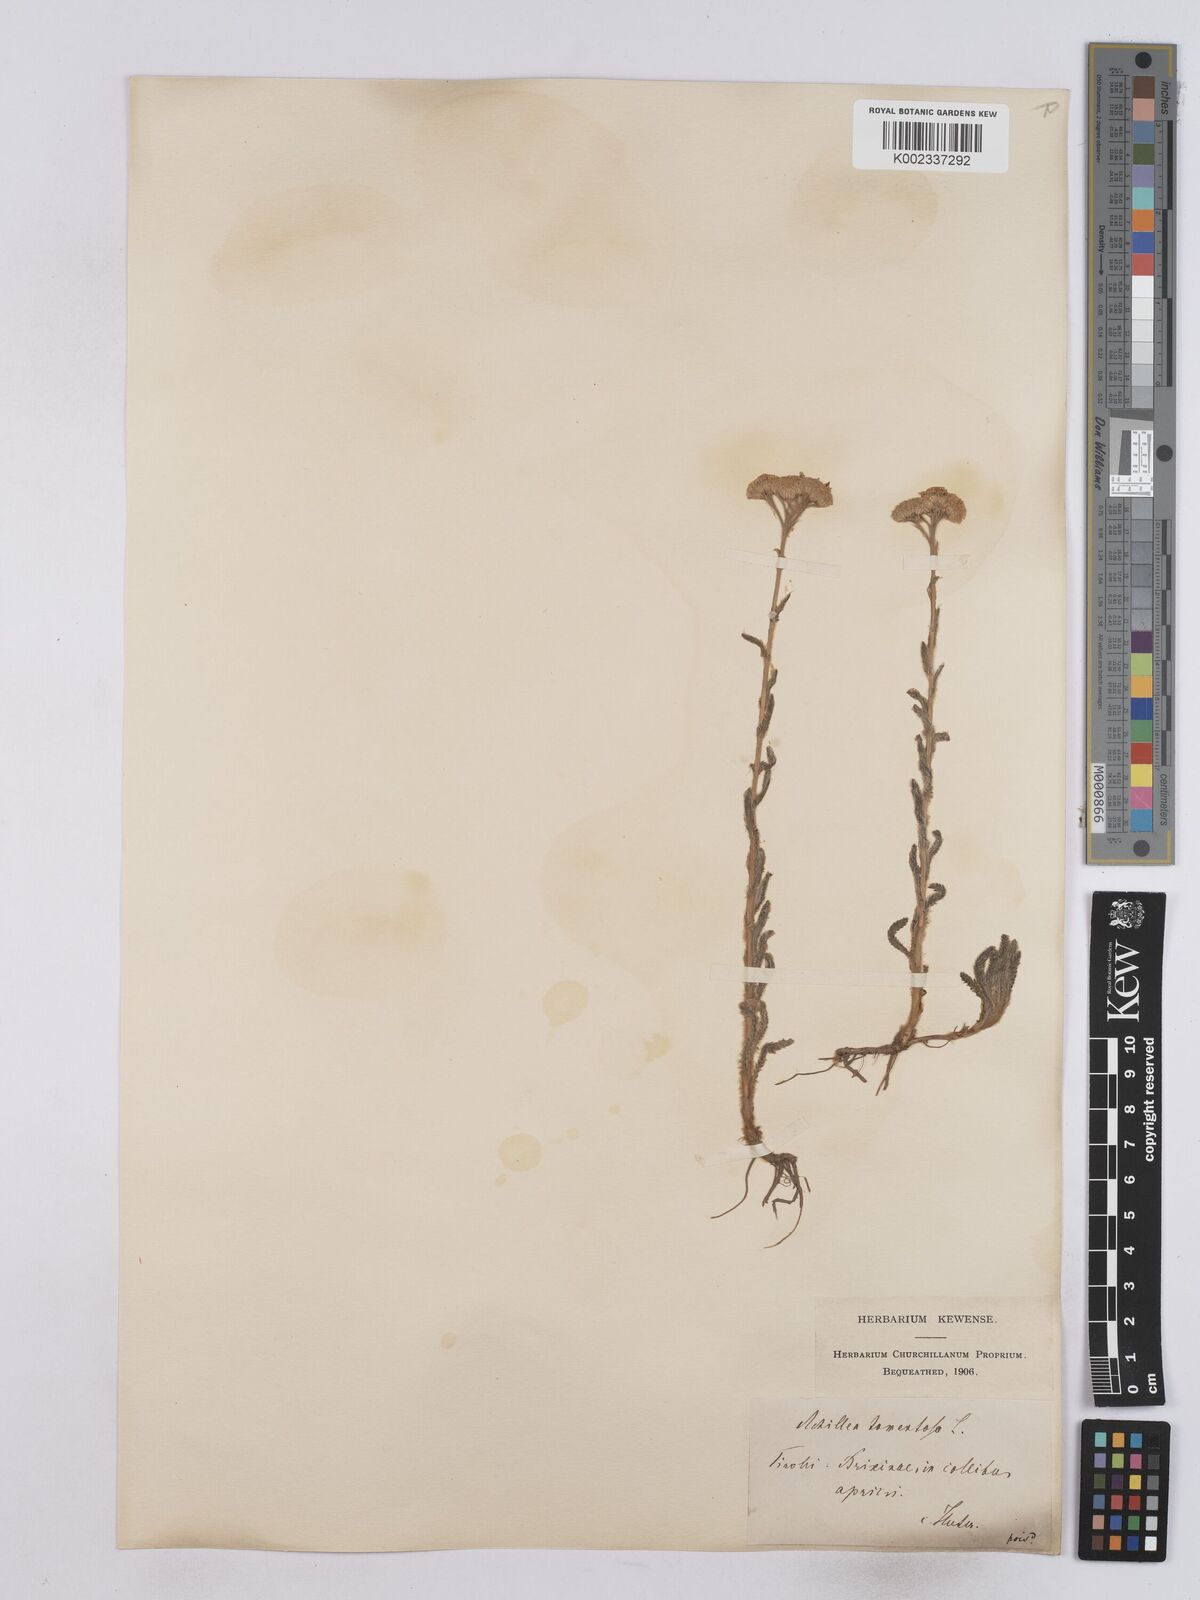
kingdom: Plantae
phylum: Tracheophyta
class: Magnoliopsida
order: Asterales
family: Asteraceae
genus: Achillea
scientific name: Achillea tomentosa
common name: Yellow milfoil
